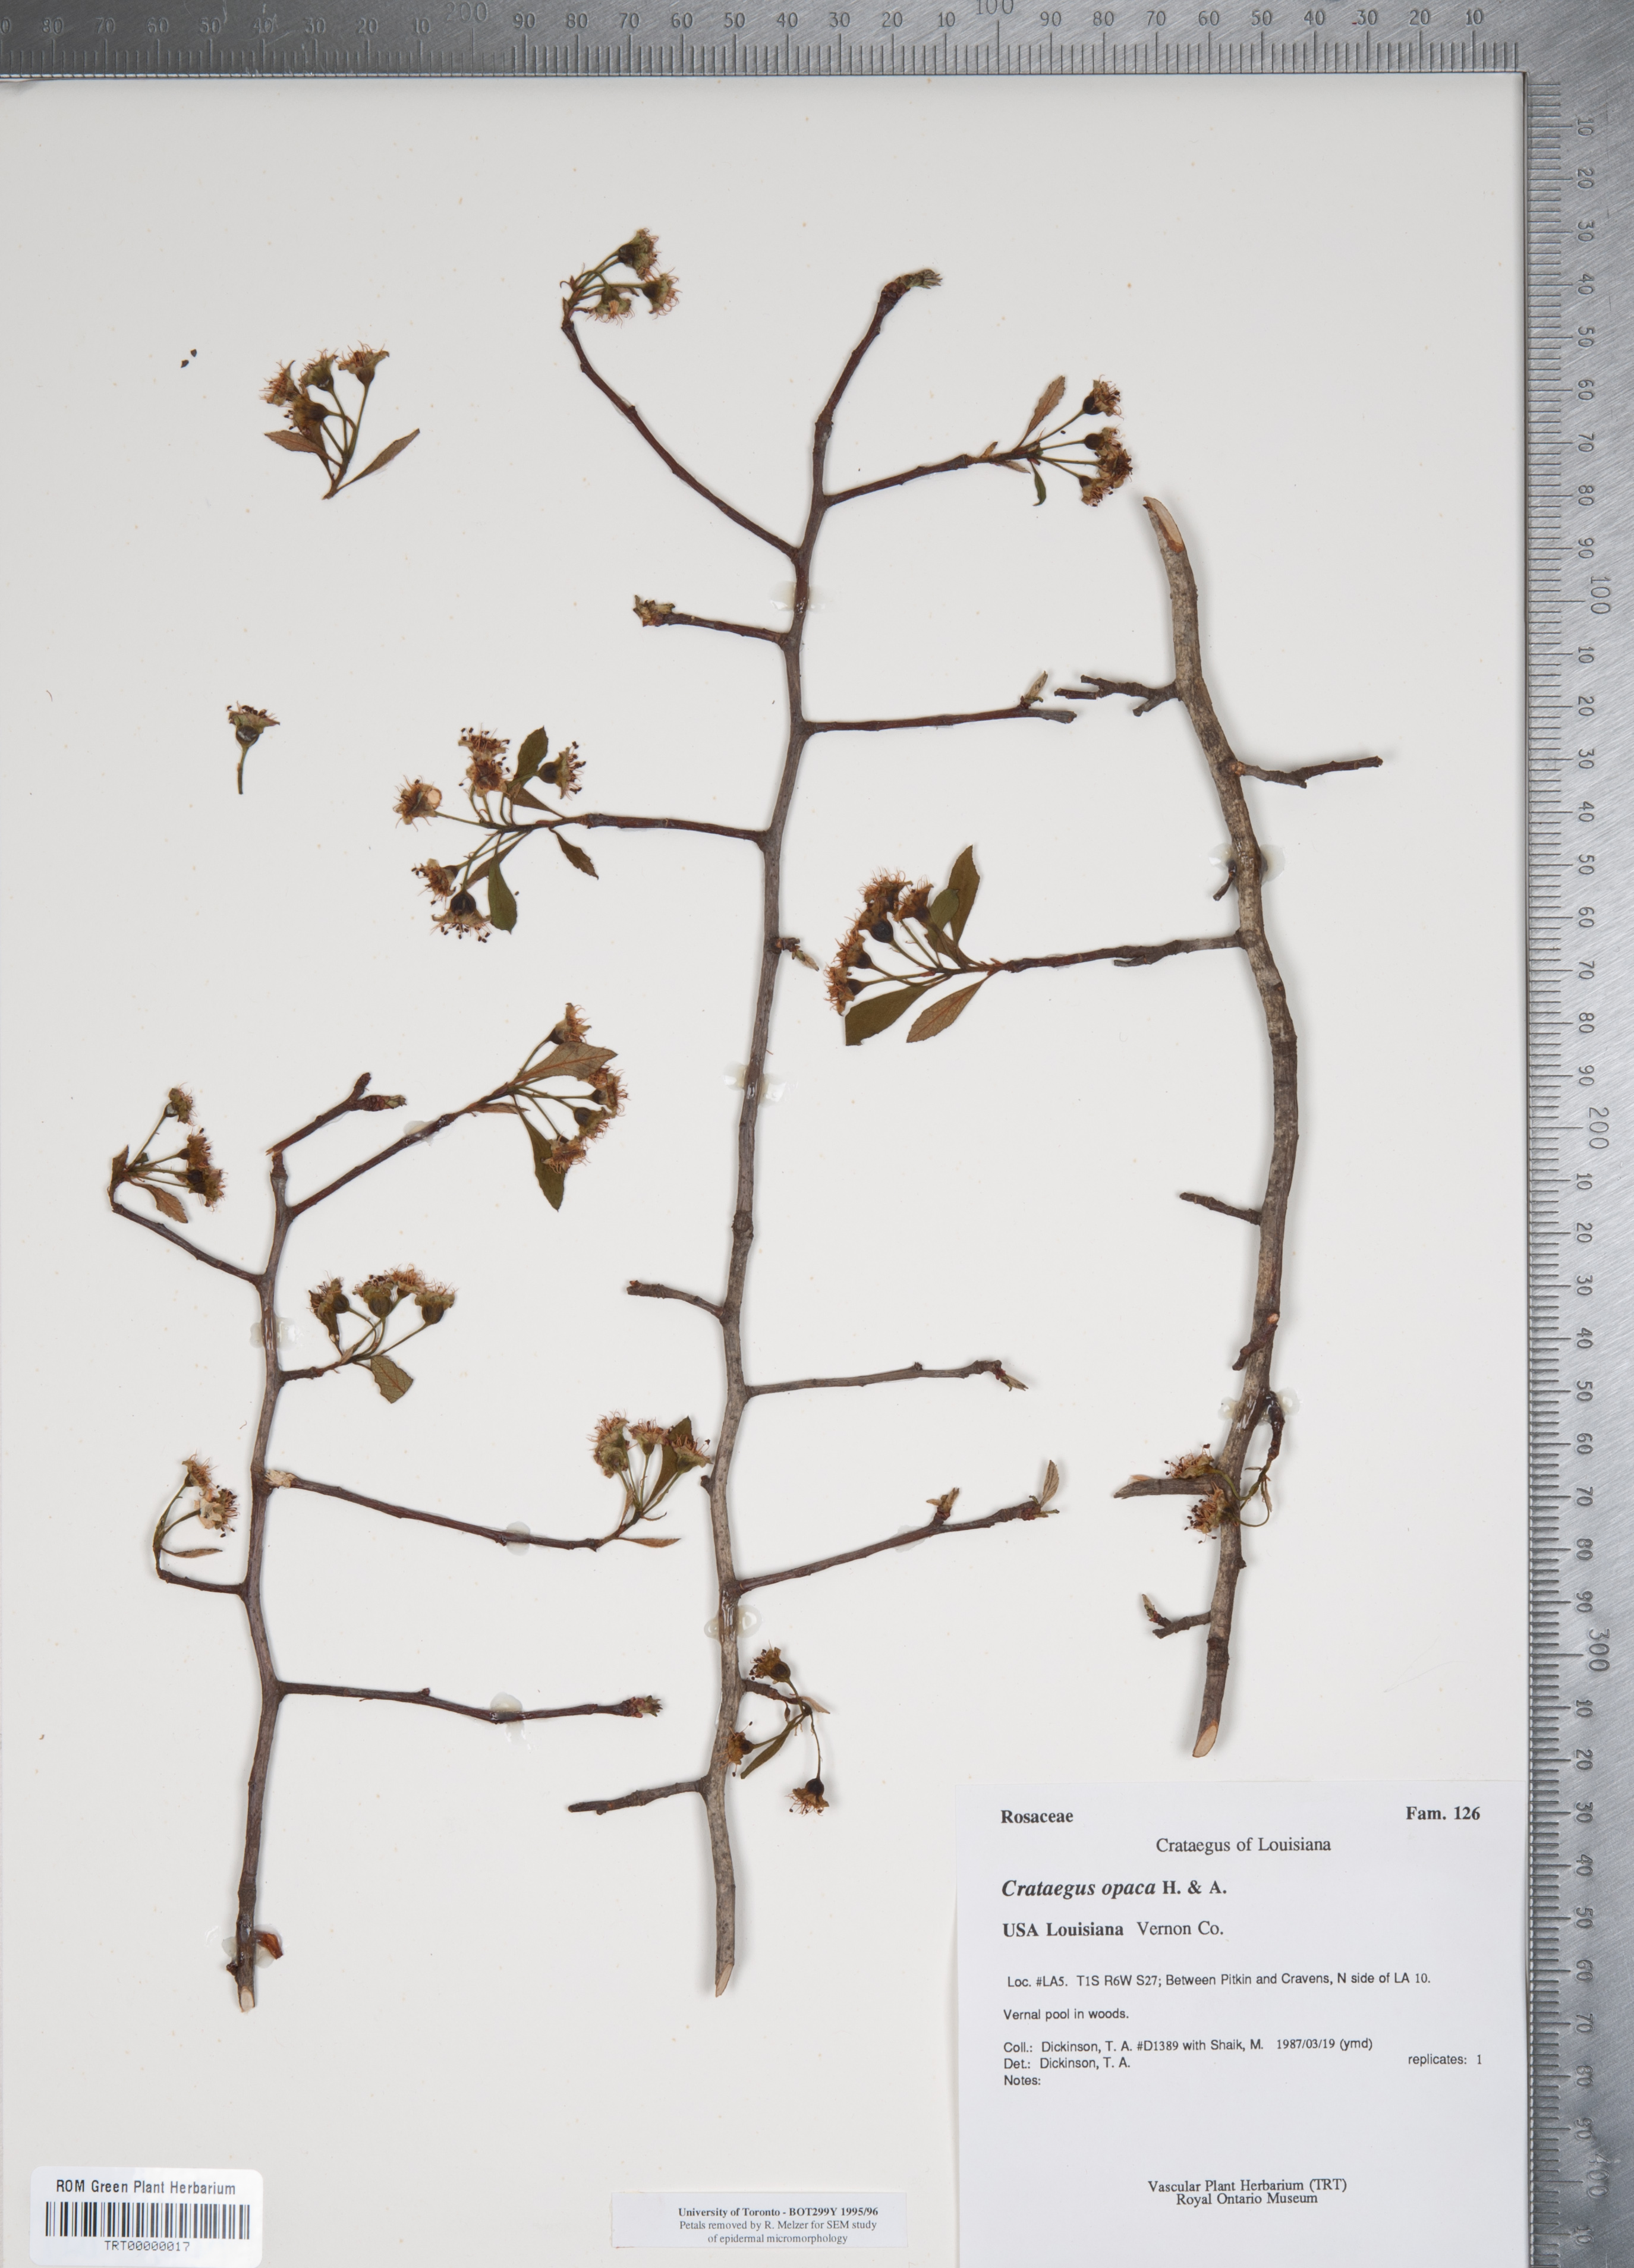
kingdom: Plantae
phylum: Tracheophyta
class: Magnoliopsida
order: Rosales
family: Rosaceae
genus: Crataegus
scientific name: Crataegus opaca
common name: Apple haw
